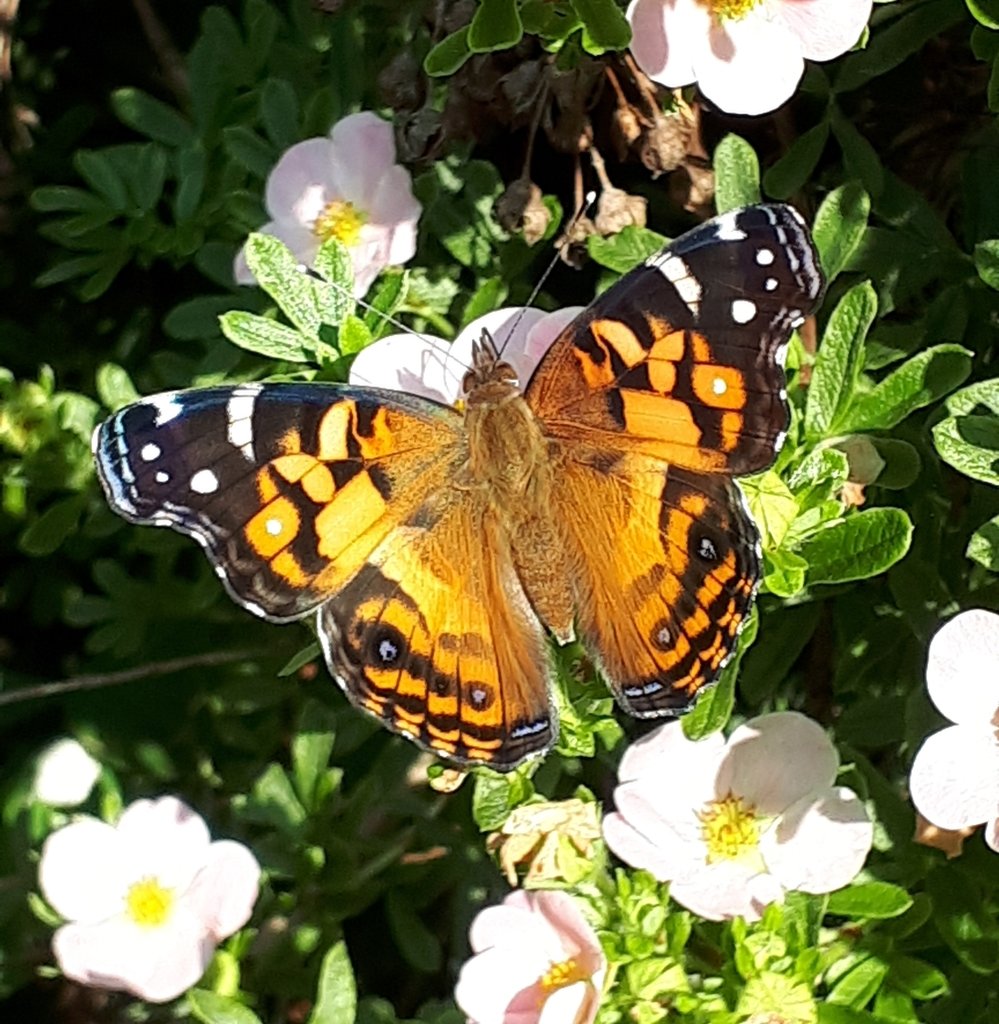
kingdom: Animalia
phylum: Arthropoda
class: Insecta
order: Lepidoptera
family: Nymphalidae
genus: Vanessa
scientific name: Vanessa virginiensis
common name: American Lady
